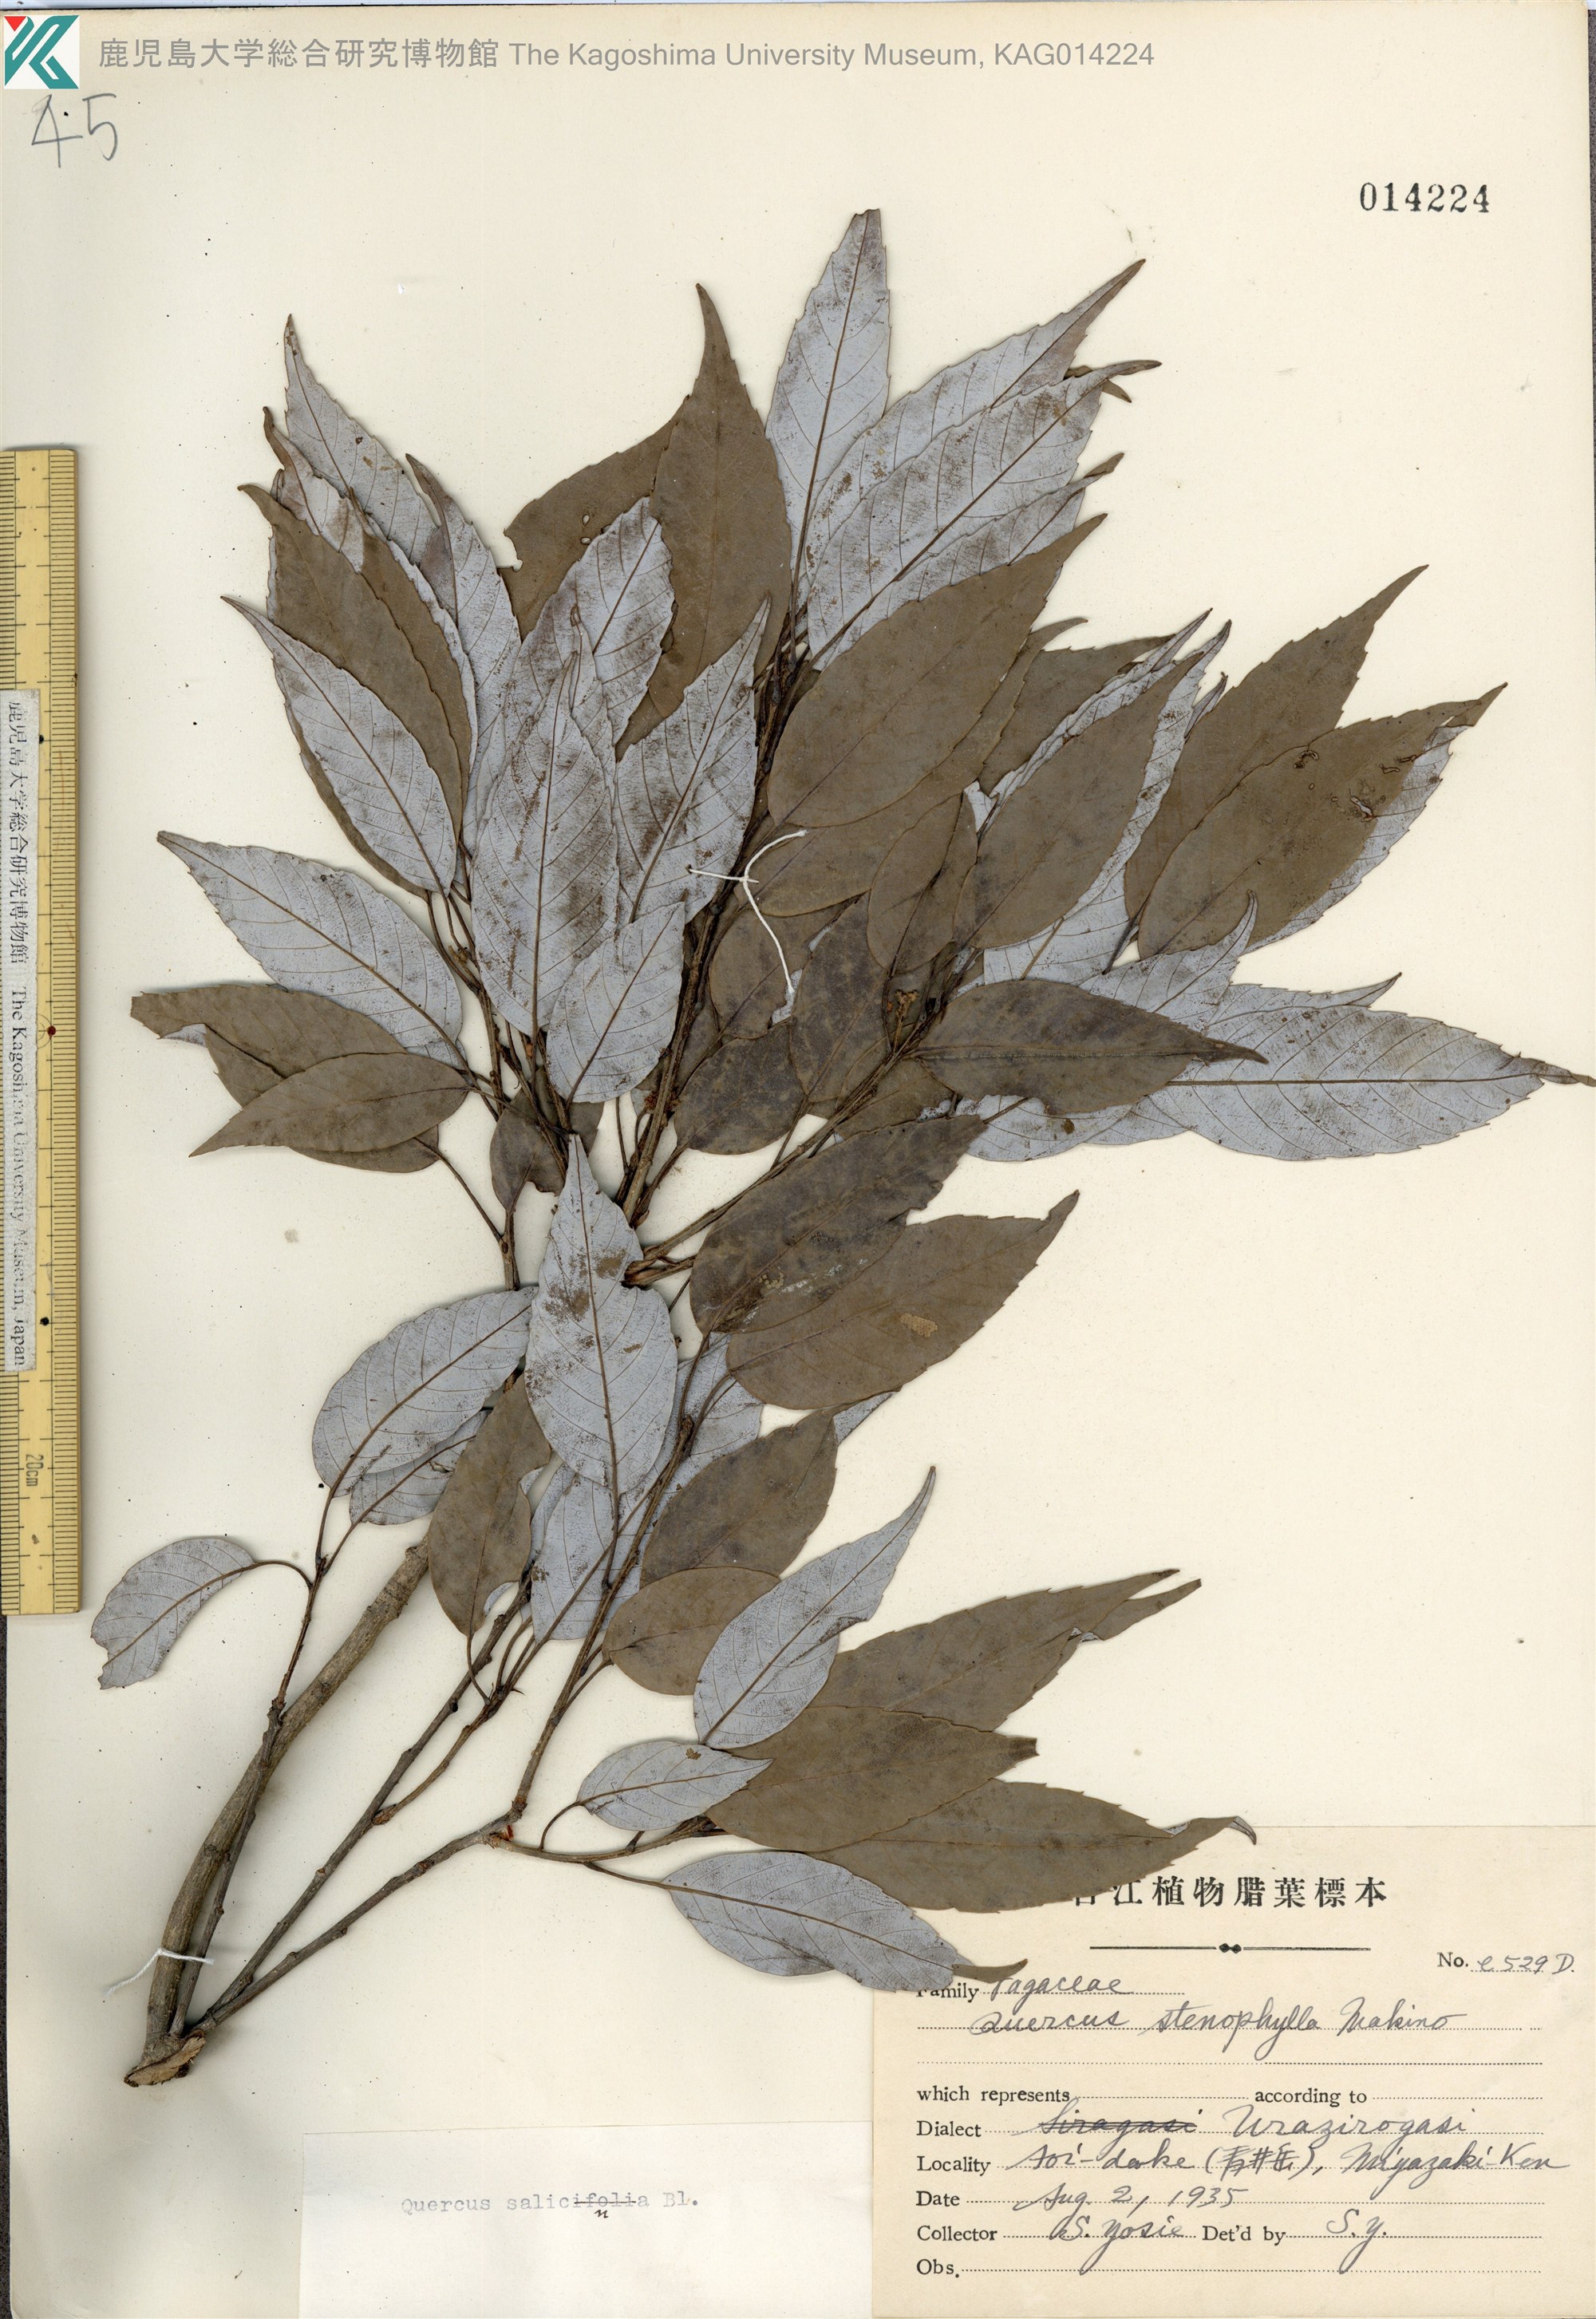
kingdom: Plantae
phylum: Tracheophyta
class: Magnoliopsida
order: Fagales
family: Fagaceae
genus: Quercus
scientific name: Quercus salicina
